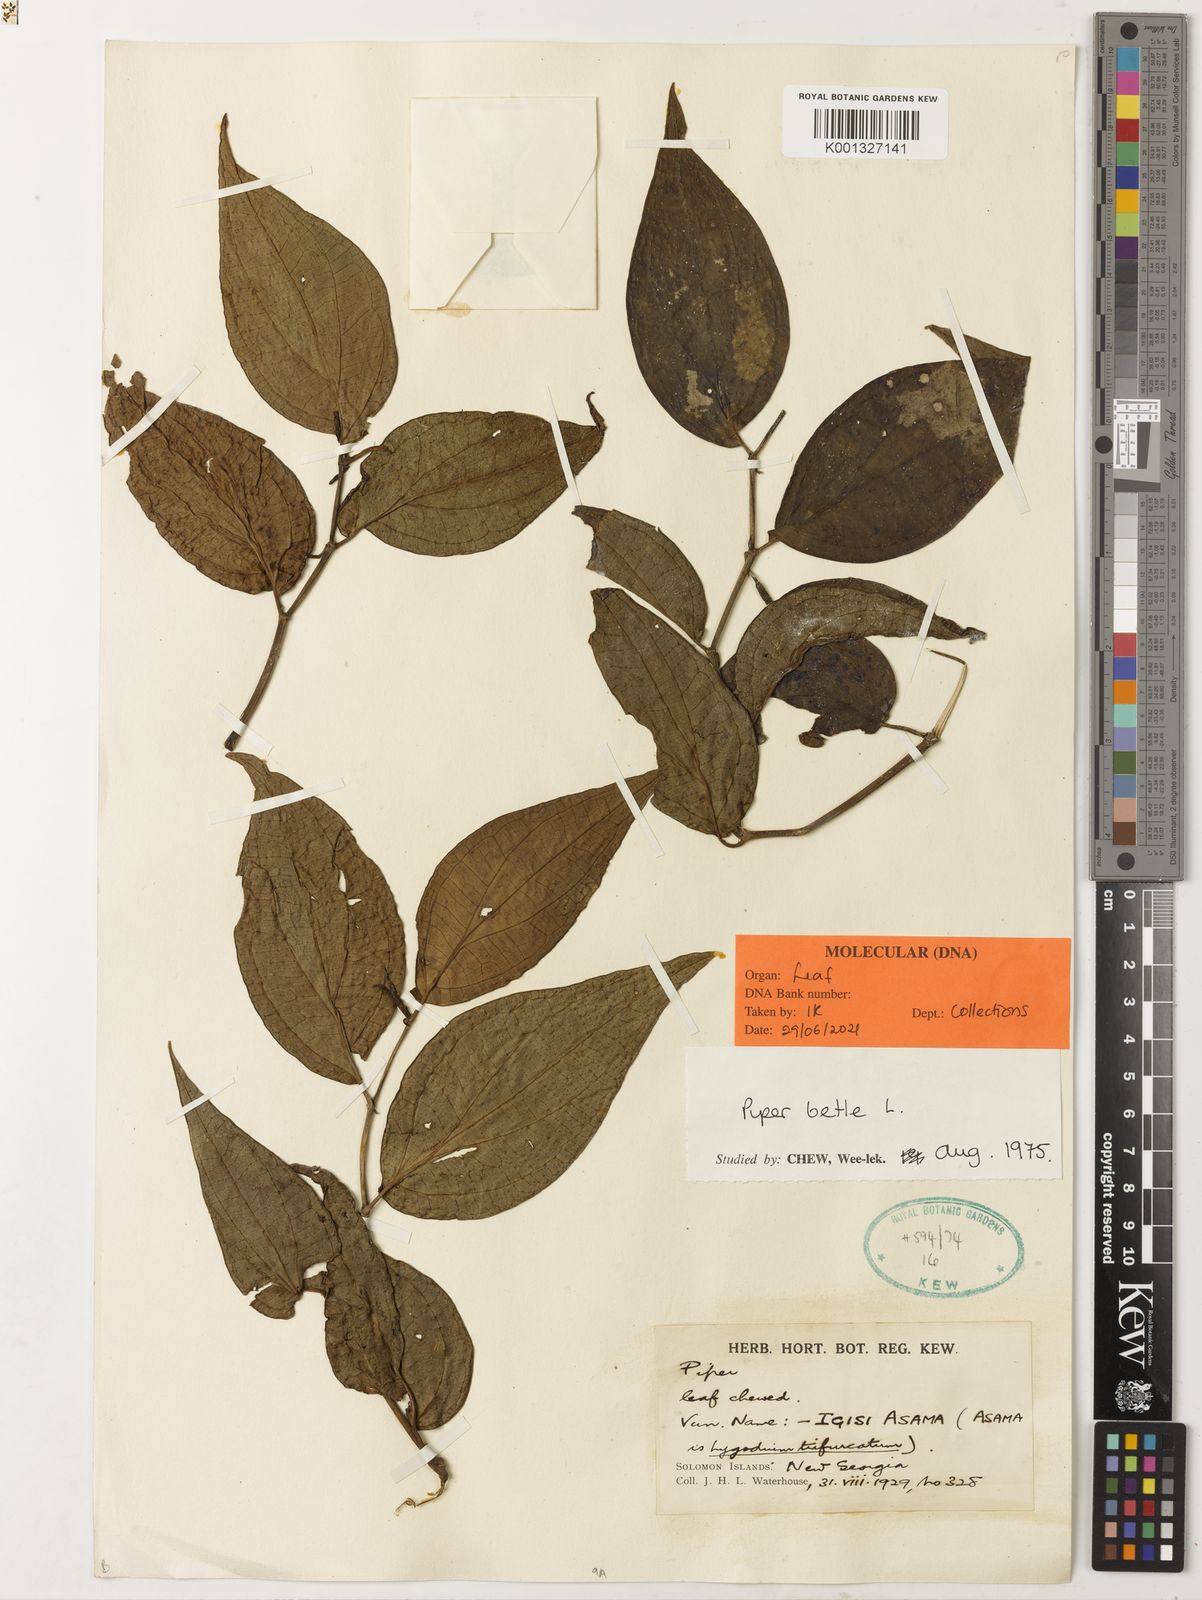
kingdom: Plantae
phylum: Tracheophyta
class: Magnoliopsida
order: Piperales
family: Piperaceae
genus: Piper
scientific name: Piper betle
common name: Betel pepper
